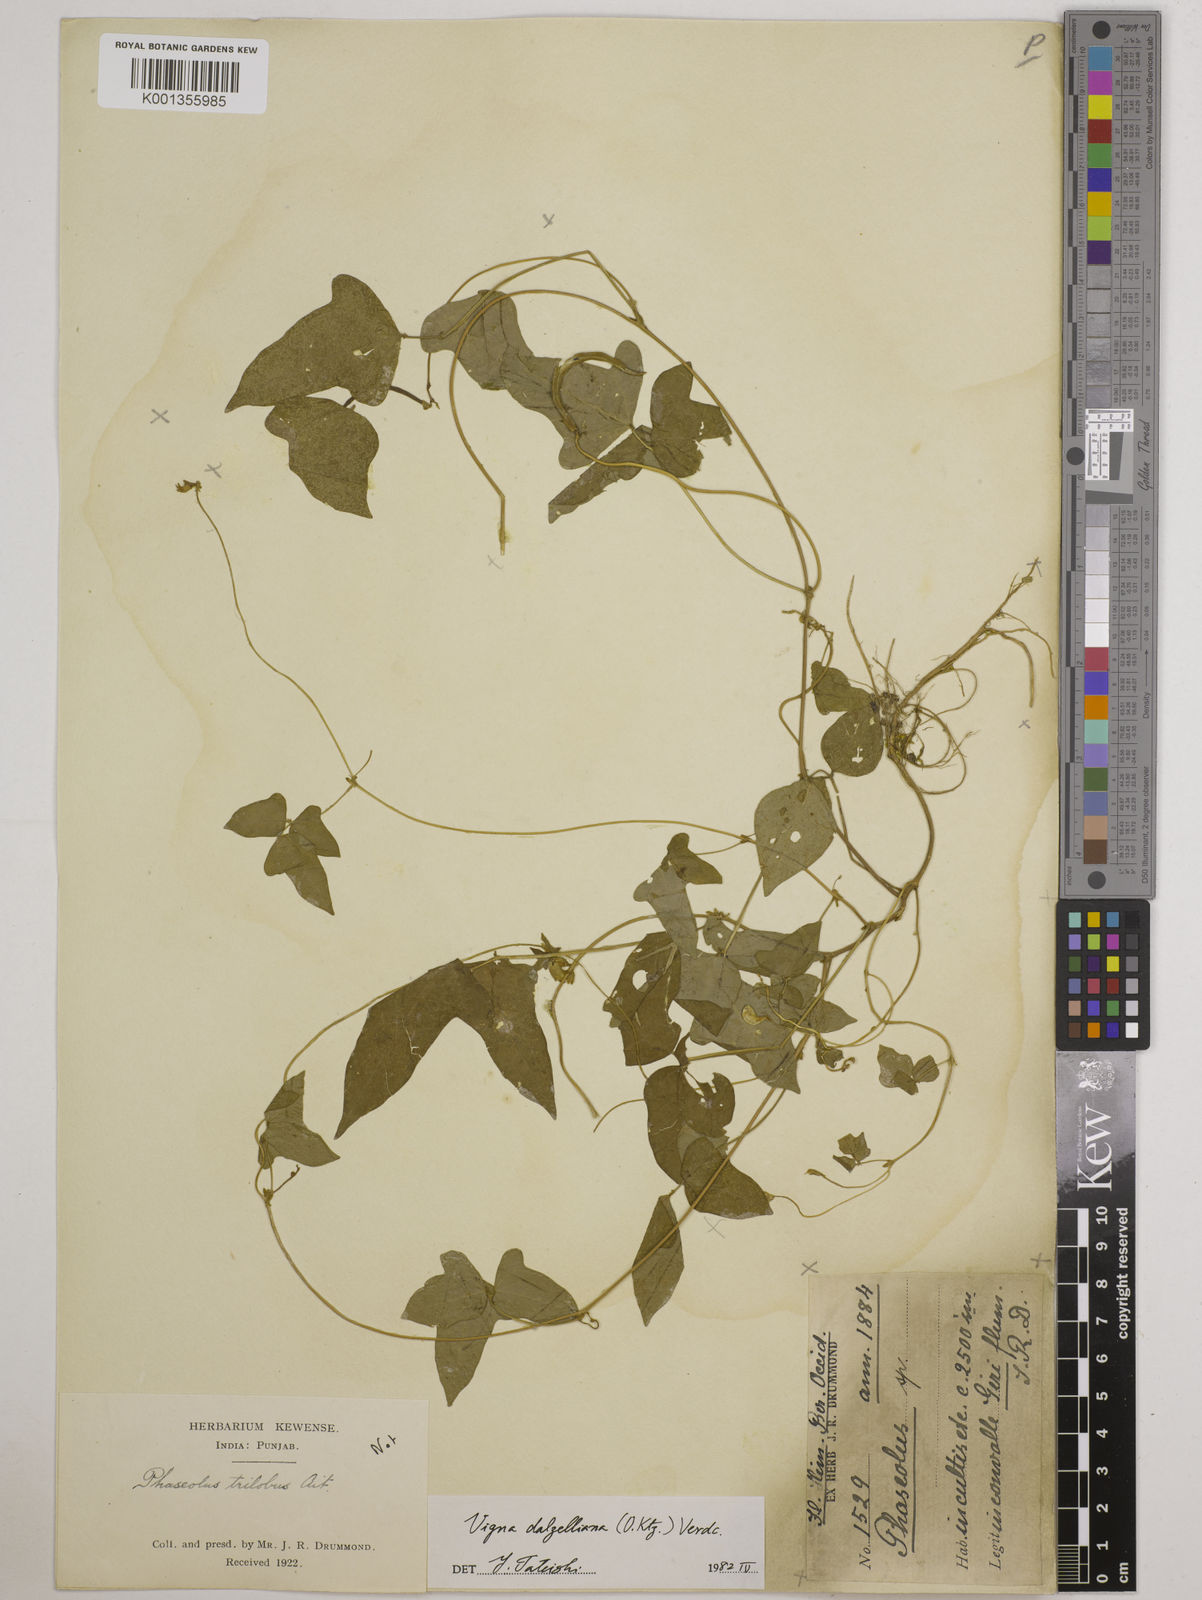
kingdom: Plantae
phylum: Tracheophyta
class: Magnoliopsida
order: Fabales
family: Fabaceae
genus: Vigna
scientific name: Vigna dalzelliana
